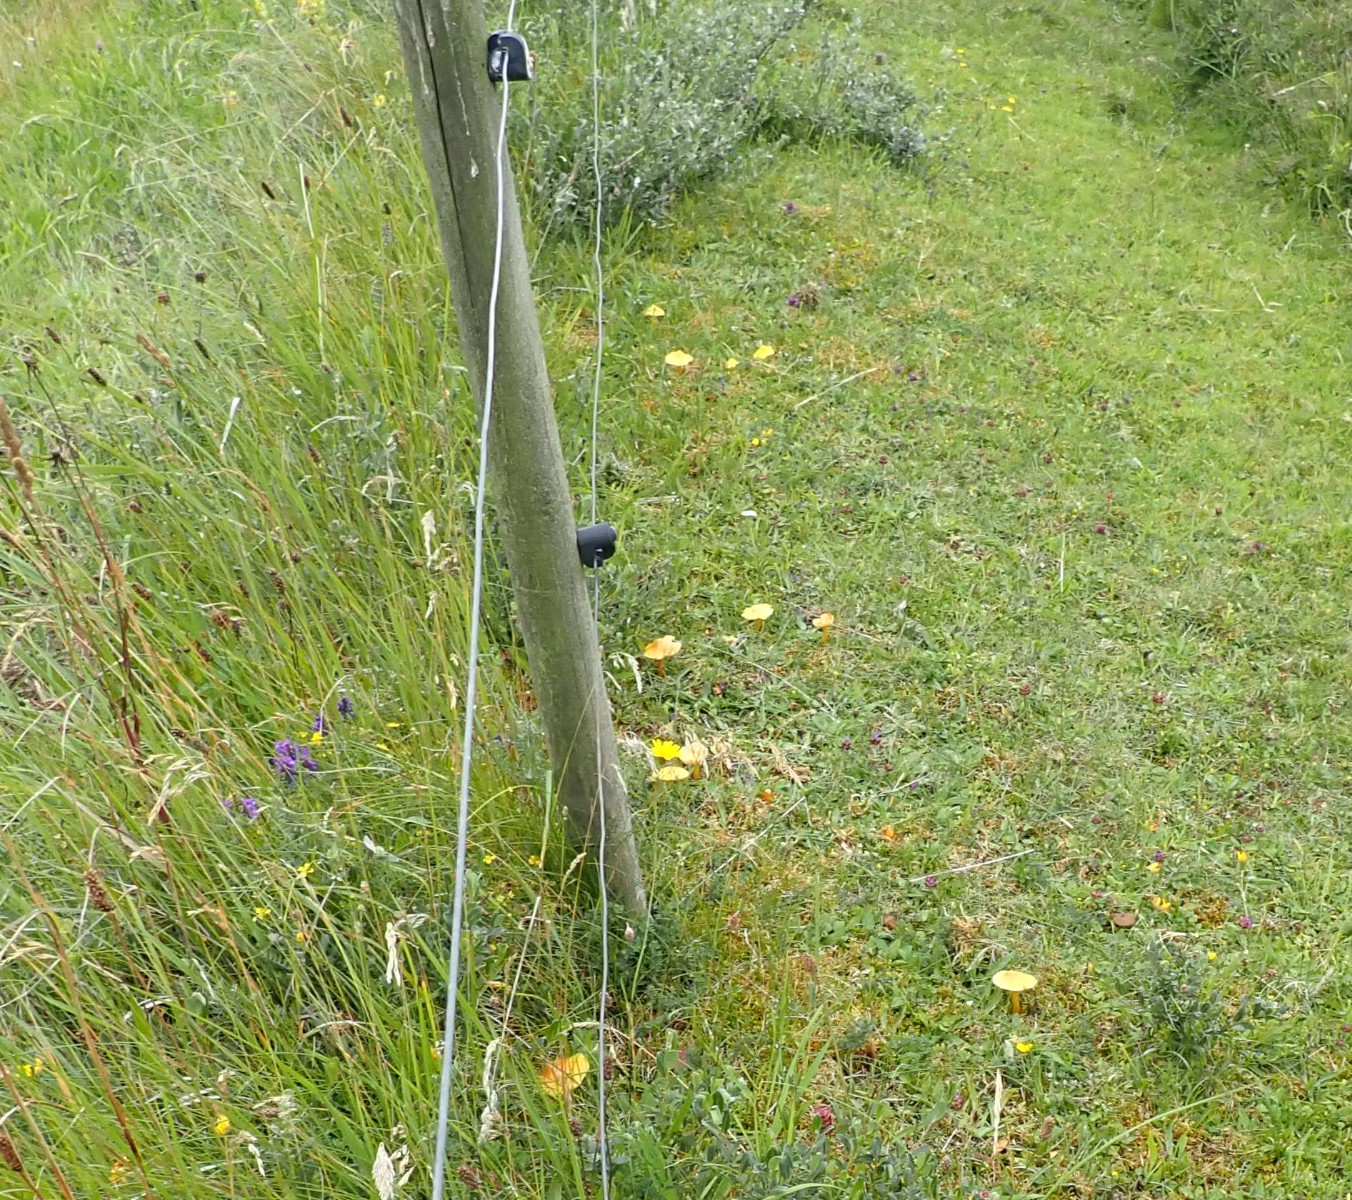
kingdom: Fungi
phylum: Basidiomycota
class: Agaricomycetes
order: Agaricales
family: Hygrophoraceae
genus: Hygrocybe
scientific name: Hygrocybe
